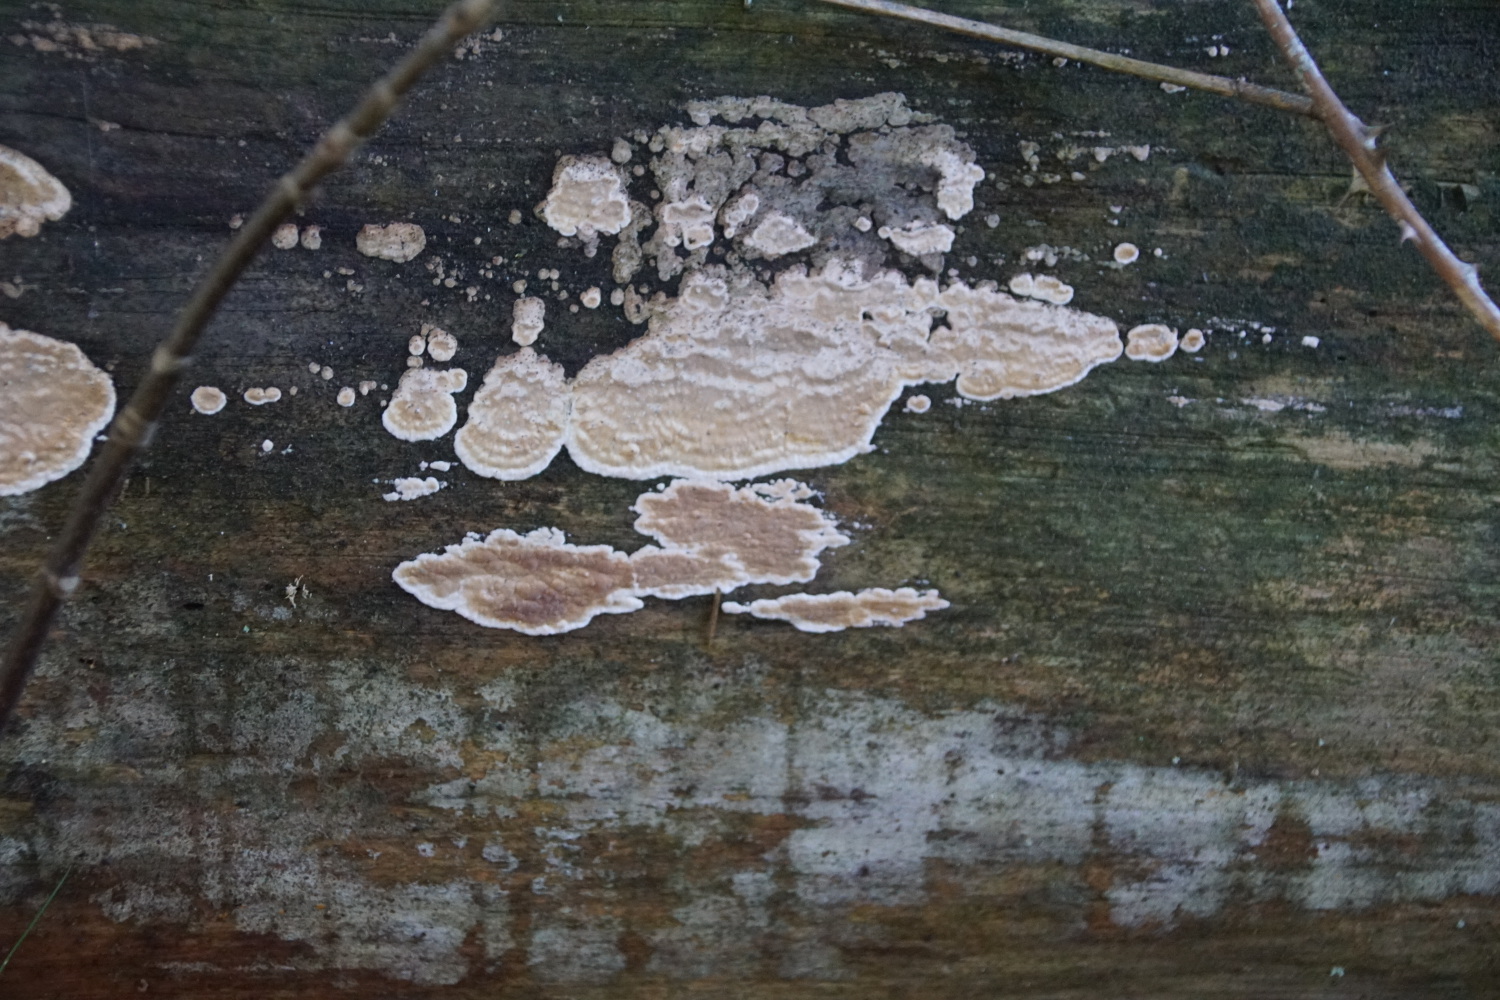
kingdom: Fungi
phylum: Basidiomycota
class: Agaricomycetes
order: Polyporales
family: Dacryobolaceae
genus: Dacryobolus
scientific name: Dacryobolus karstenii
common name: glat vulkanskorpe
